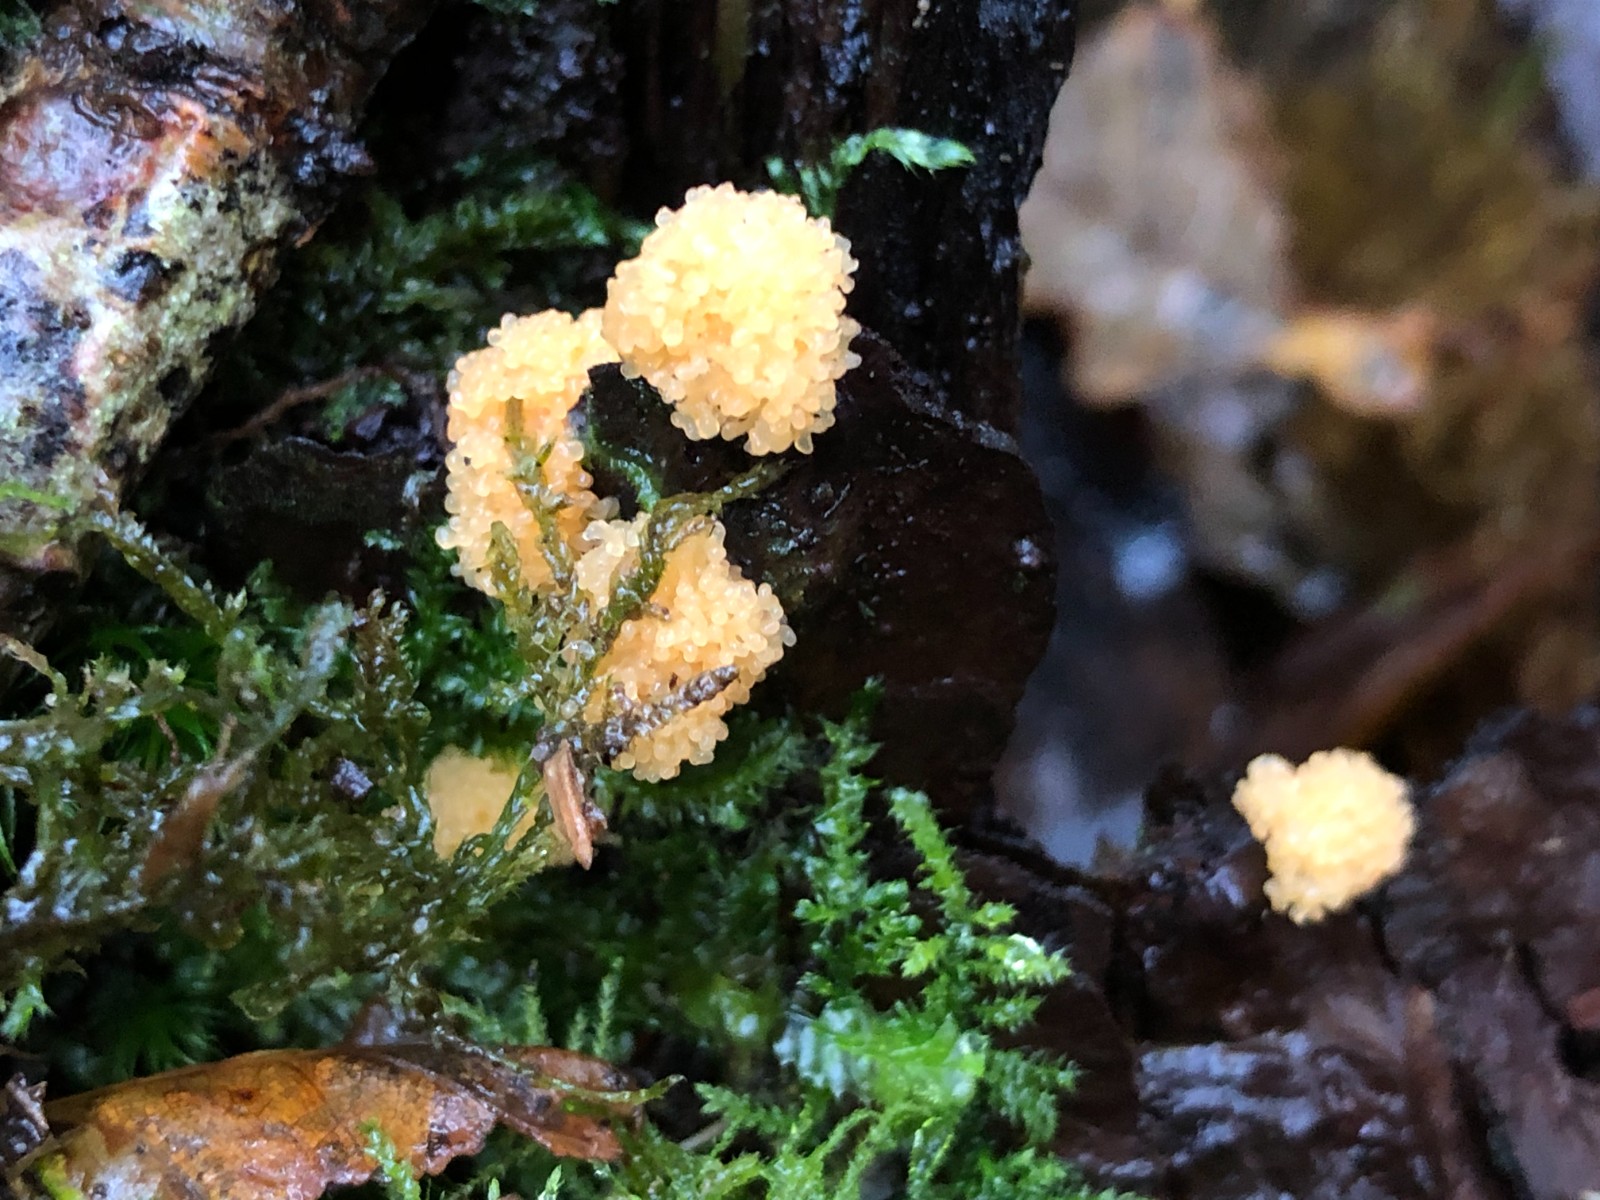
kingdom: Protozoa
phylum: Mycetozoa
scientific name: Mycetozoa
